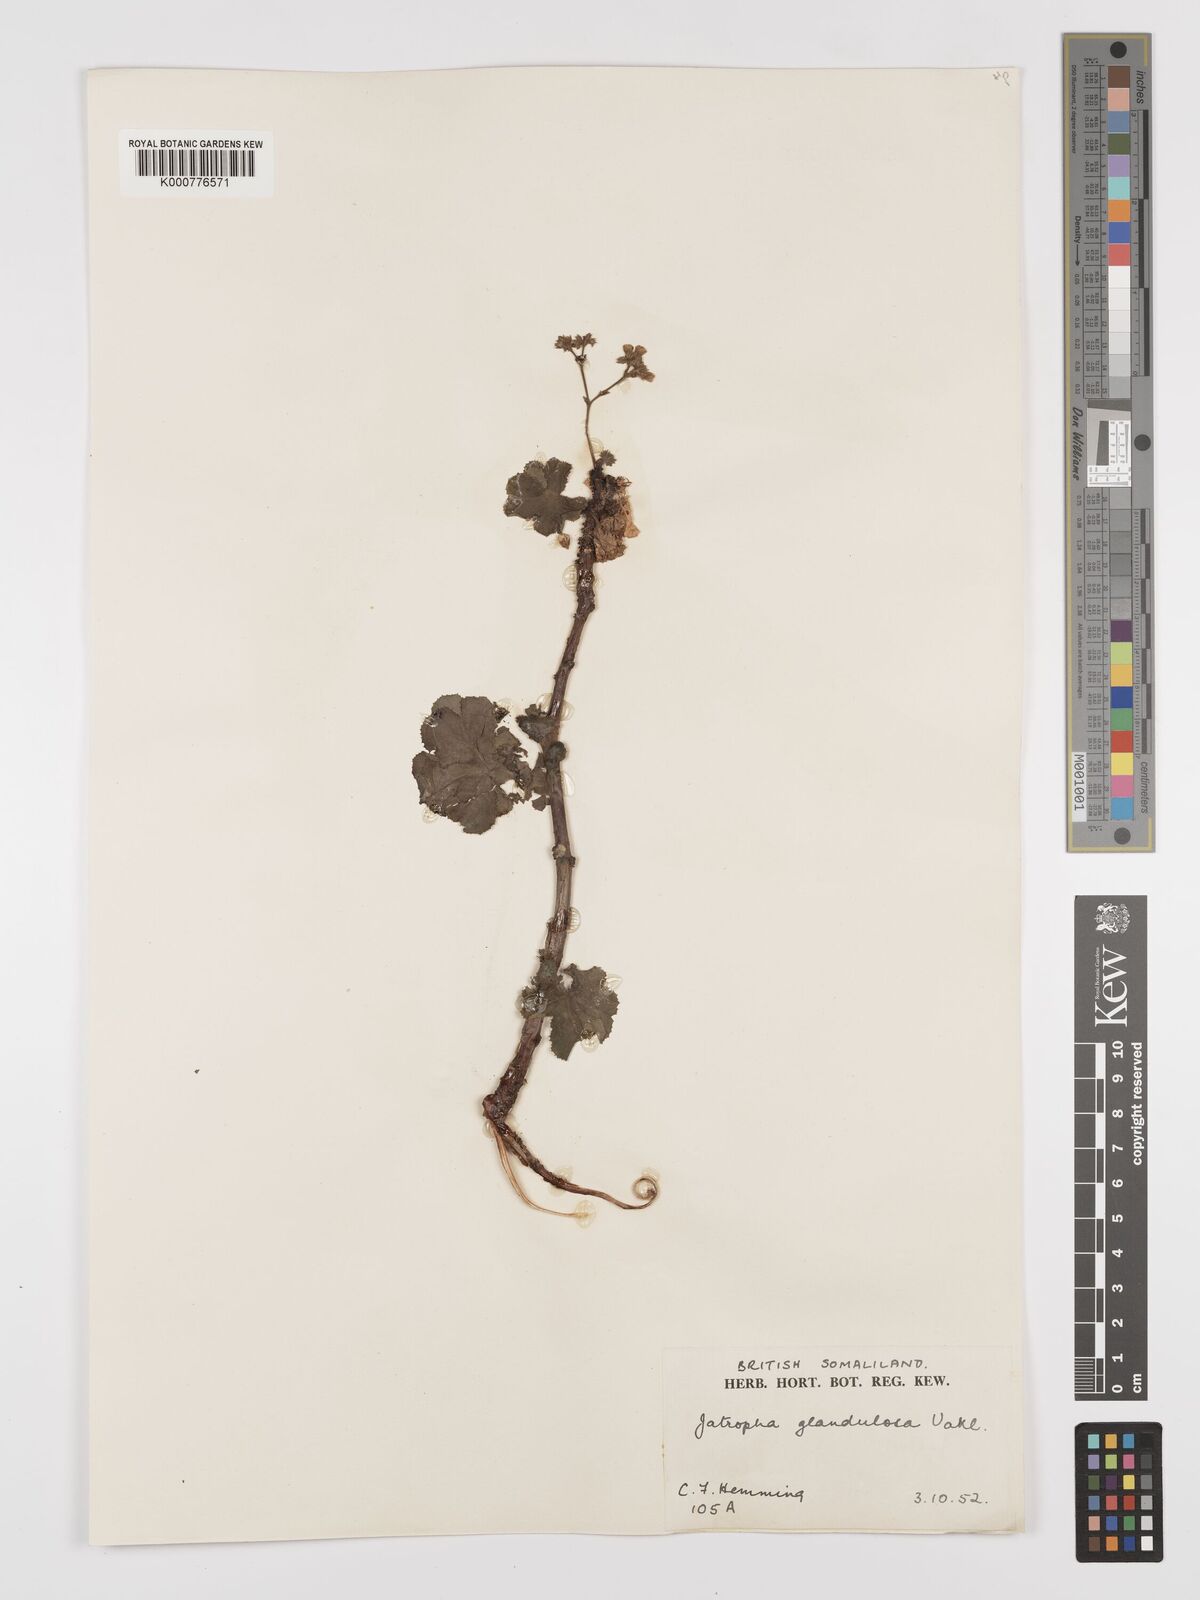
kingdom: Plantae
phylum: Tracheophyta
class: Magnoliopsida
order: Malpighiales
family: Euphorbiaceae
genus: Jatropha
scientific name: Jatropha pelargoniifolia
